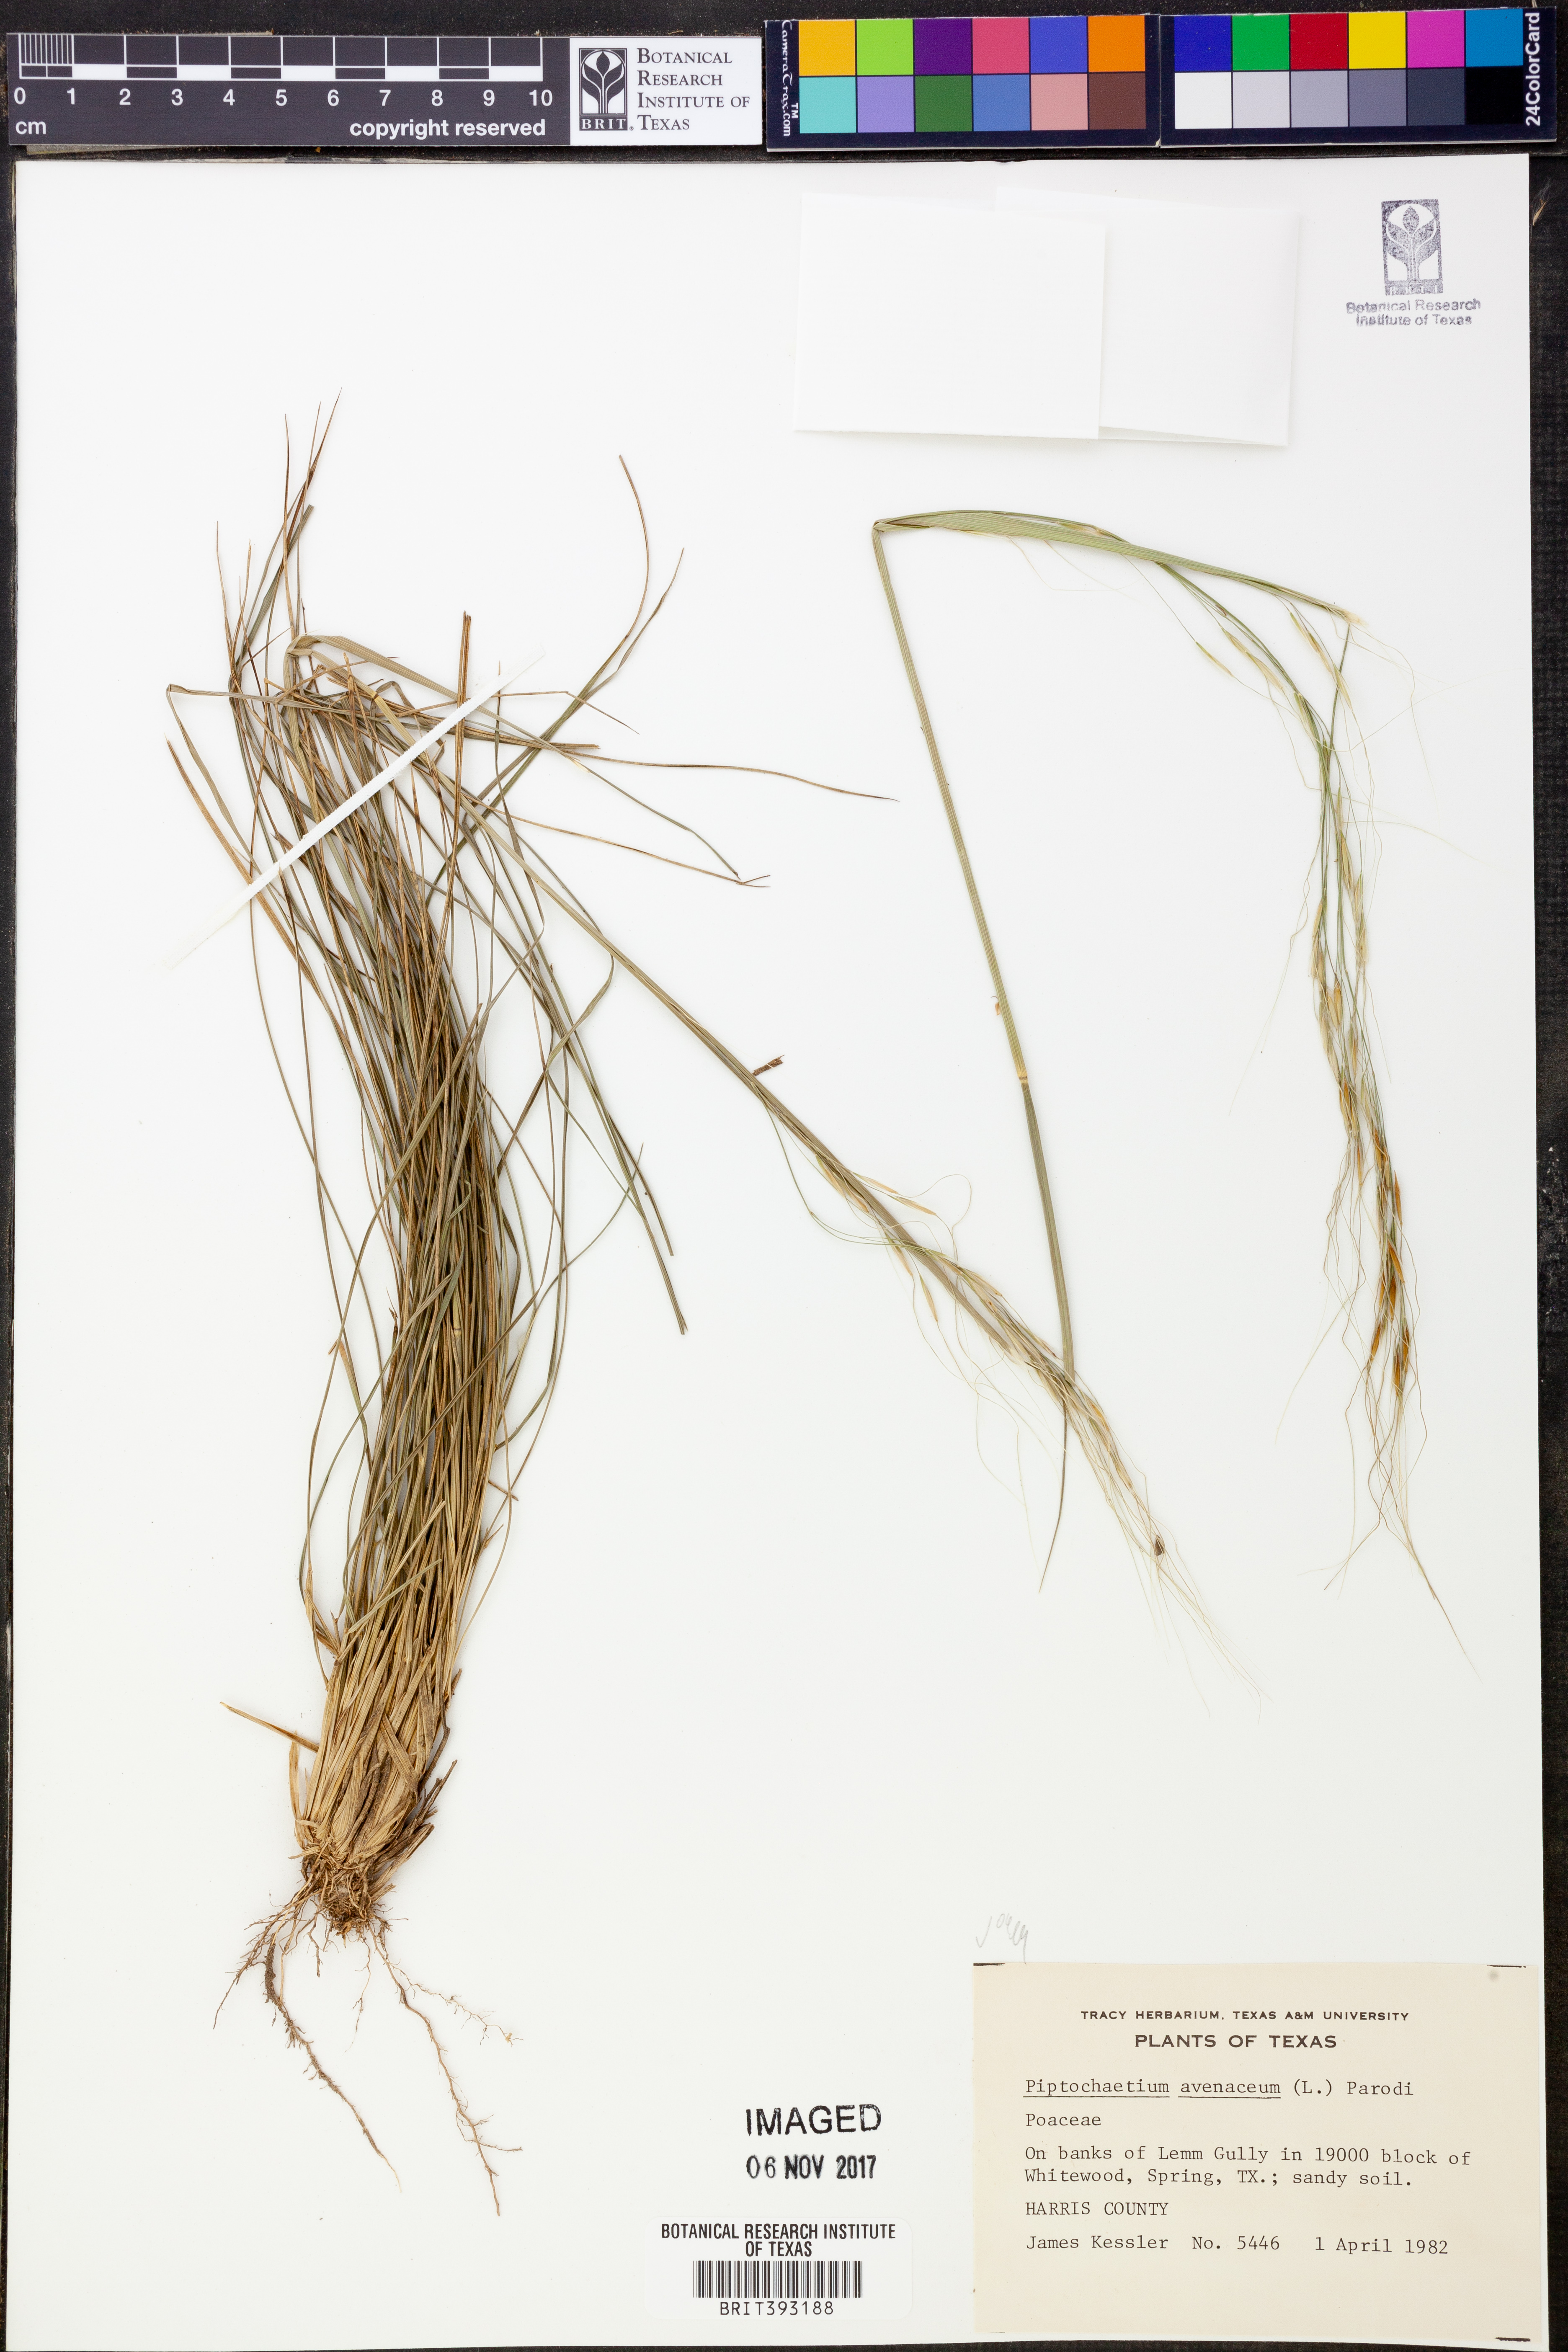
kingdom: Plantae
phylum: Tracheophyta
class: Liliopsida
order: Poales
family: Poaceae
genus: Piptochaetium
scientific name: Piptochaetium avenaceum
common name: Black bunchgrass
